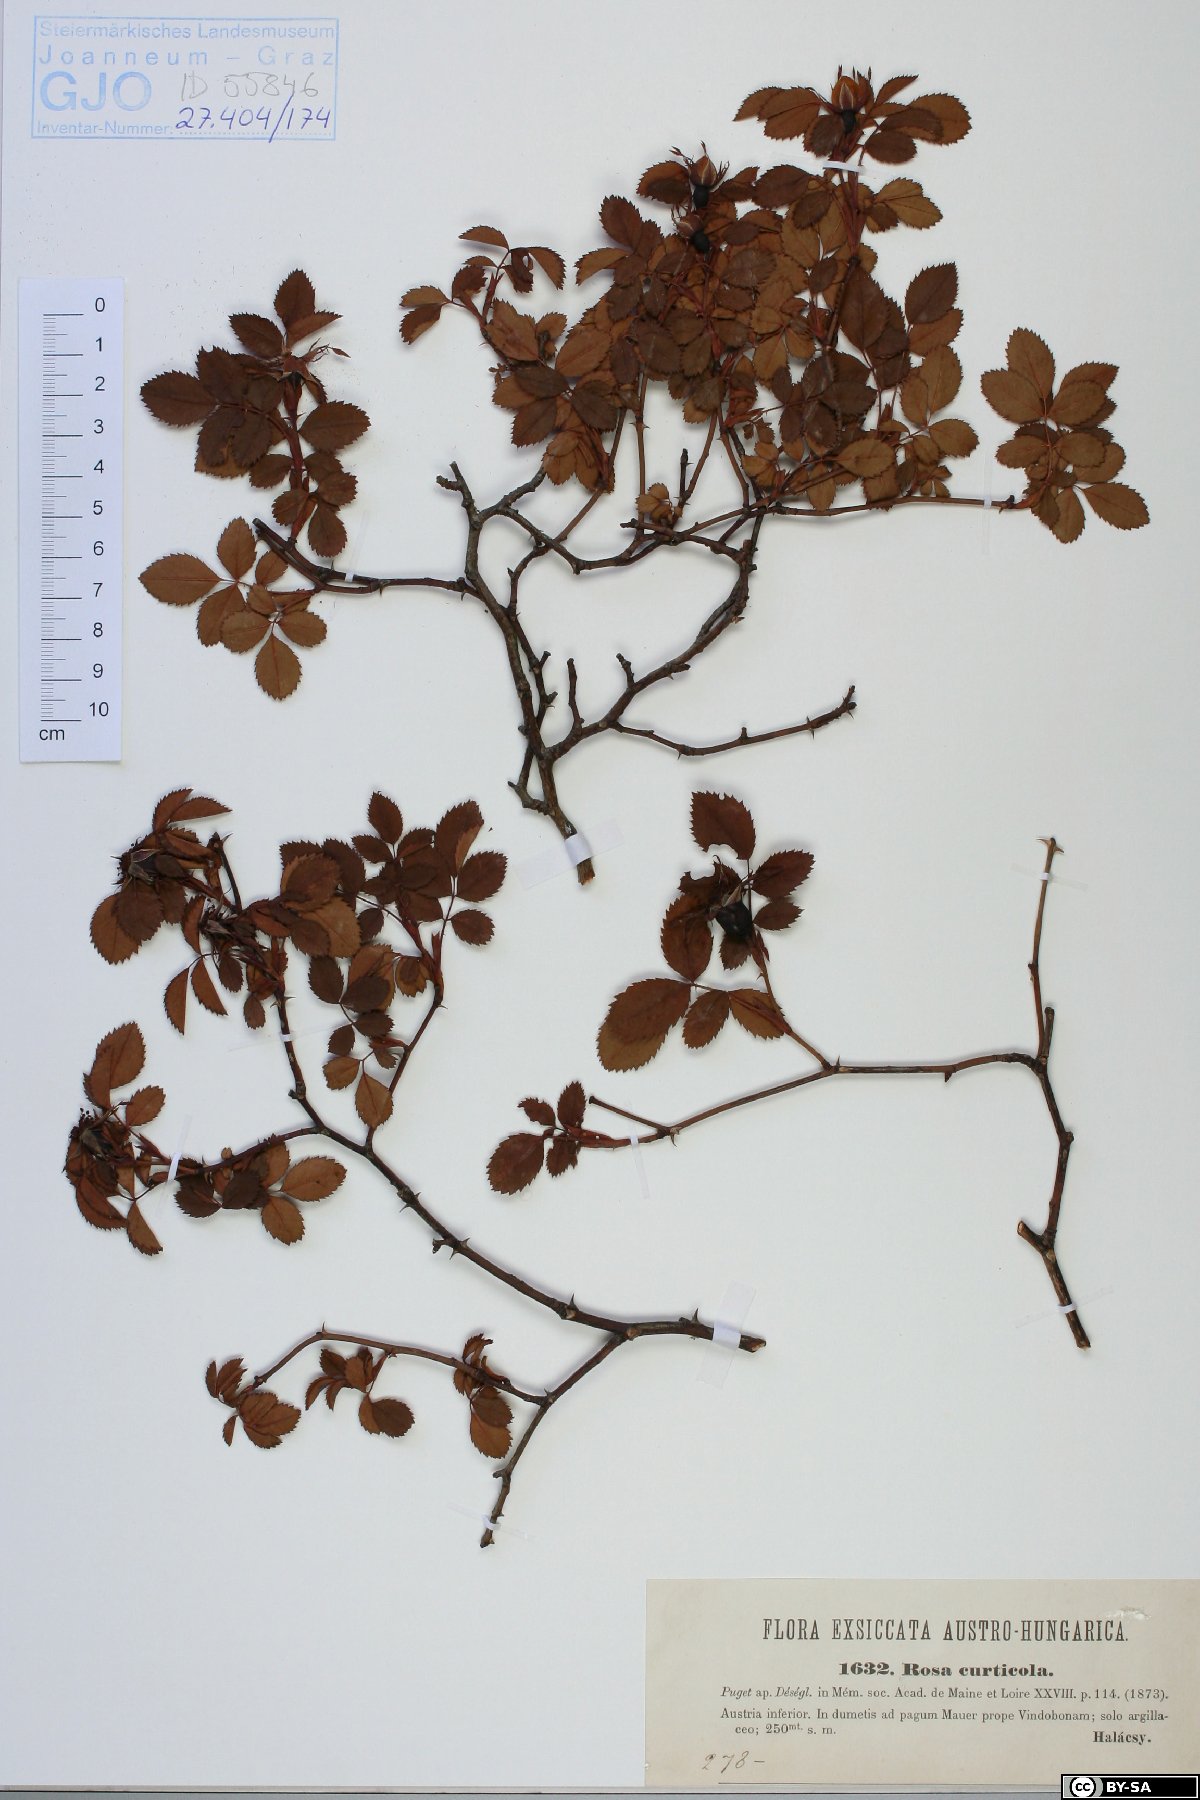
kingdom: Plantae
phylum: Tracheophyta
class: Magnoliopsida
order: Rosales
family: Rosaceae
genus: Rosa
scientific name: Rosa canina
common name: Dog rose
